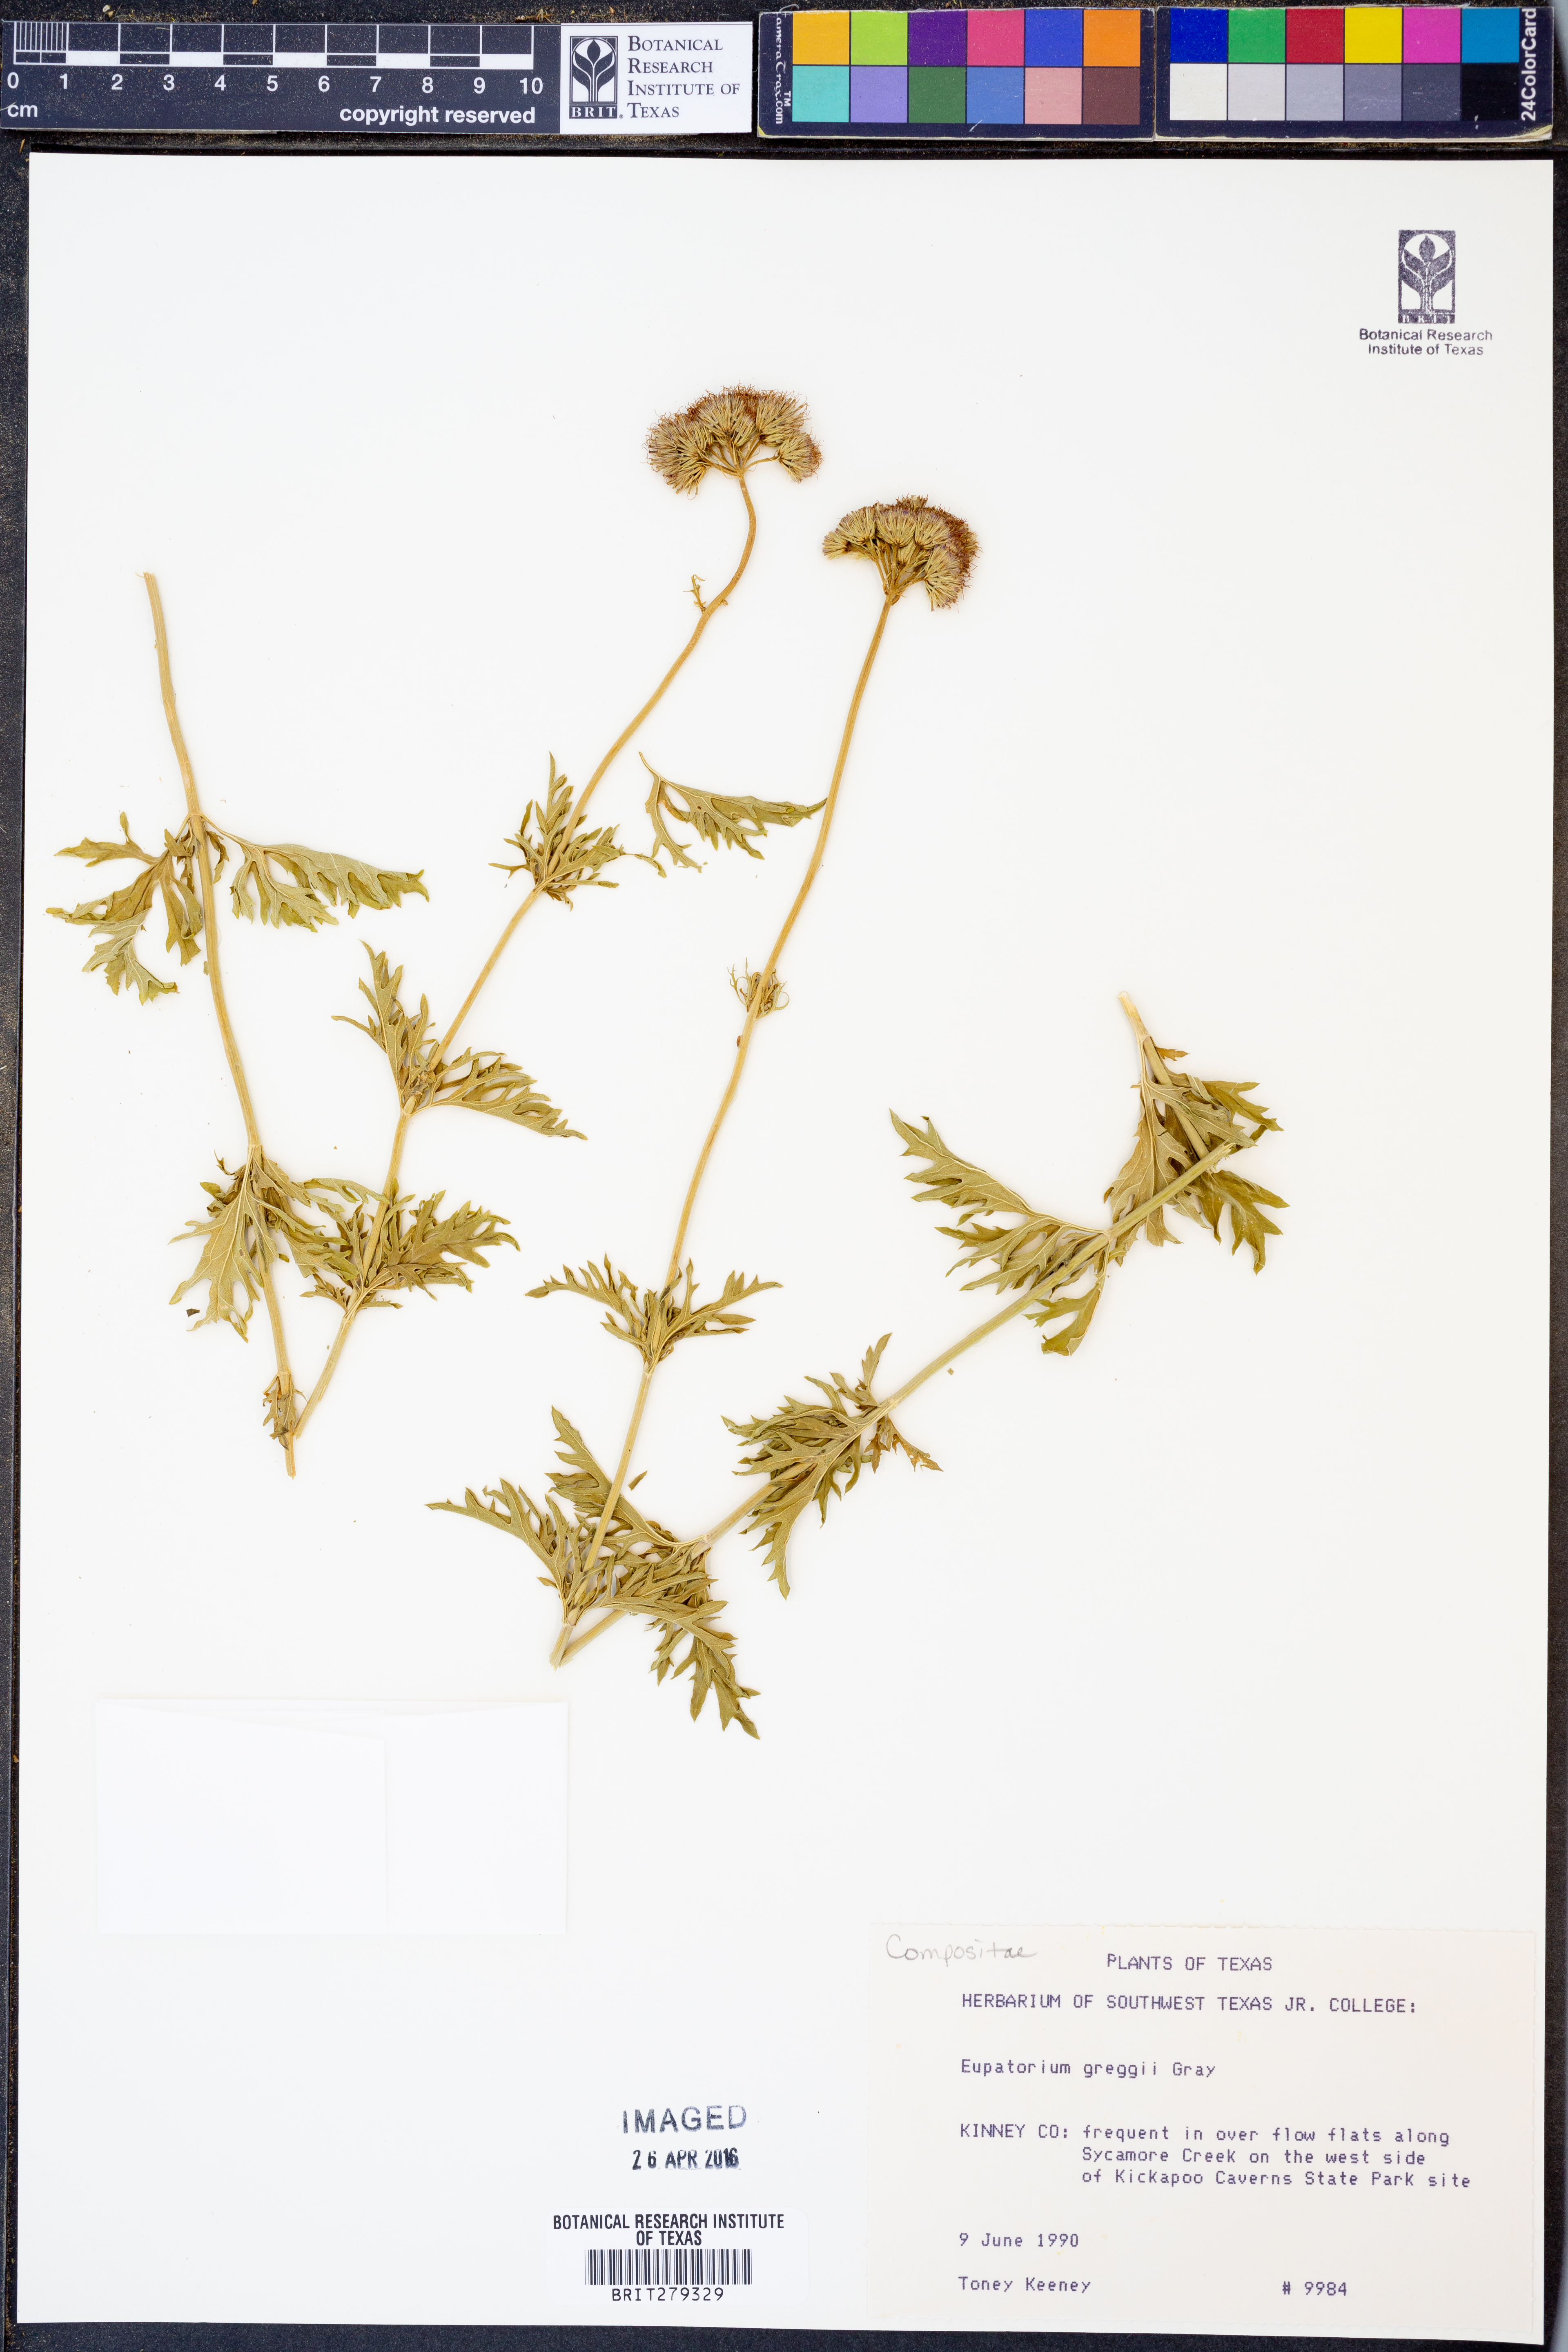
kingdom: Plantae
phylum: Tracheophyta
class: Magnoliopsida
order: Asterales
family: Asteraceae
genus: Conoclinium
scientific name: Conoclinium dissectum
